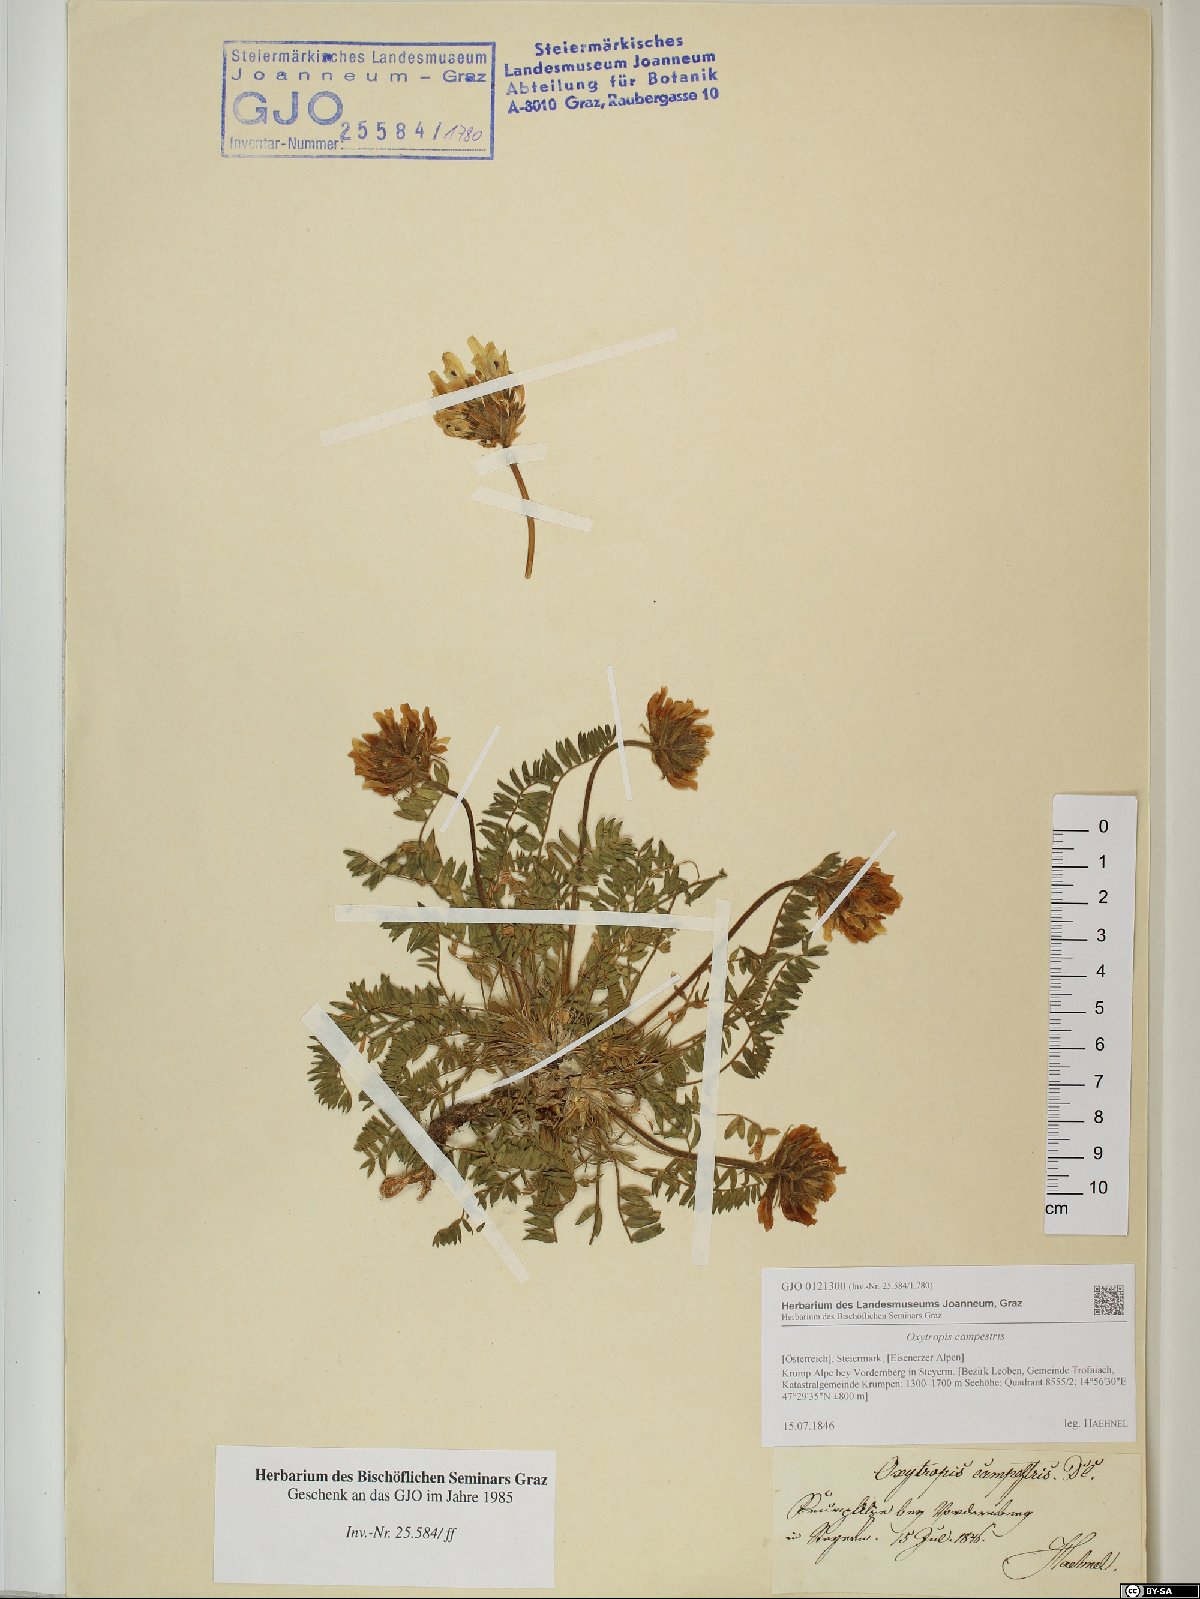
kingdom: Plantae
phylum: Tracheophyta
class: Magnoliopsida
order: Fabales
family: Fabaceae
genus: Oxytropis
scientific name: Oxytropis campestris
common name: Field locoweed
